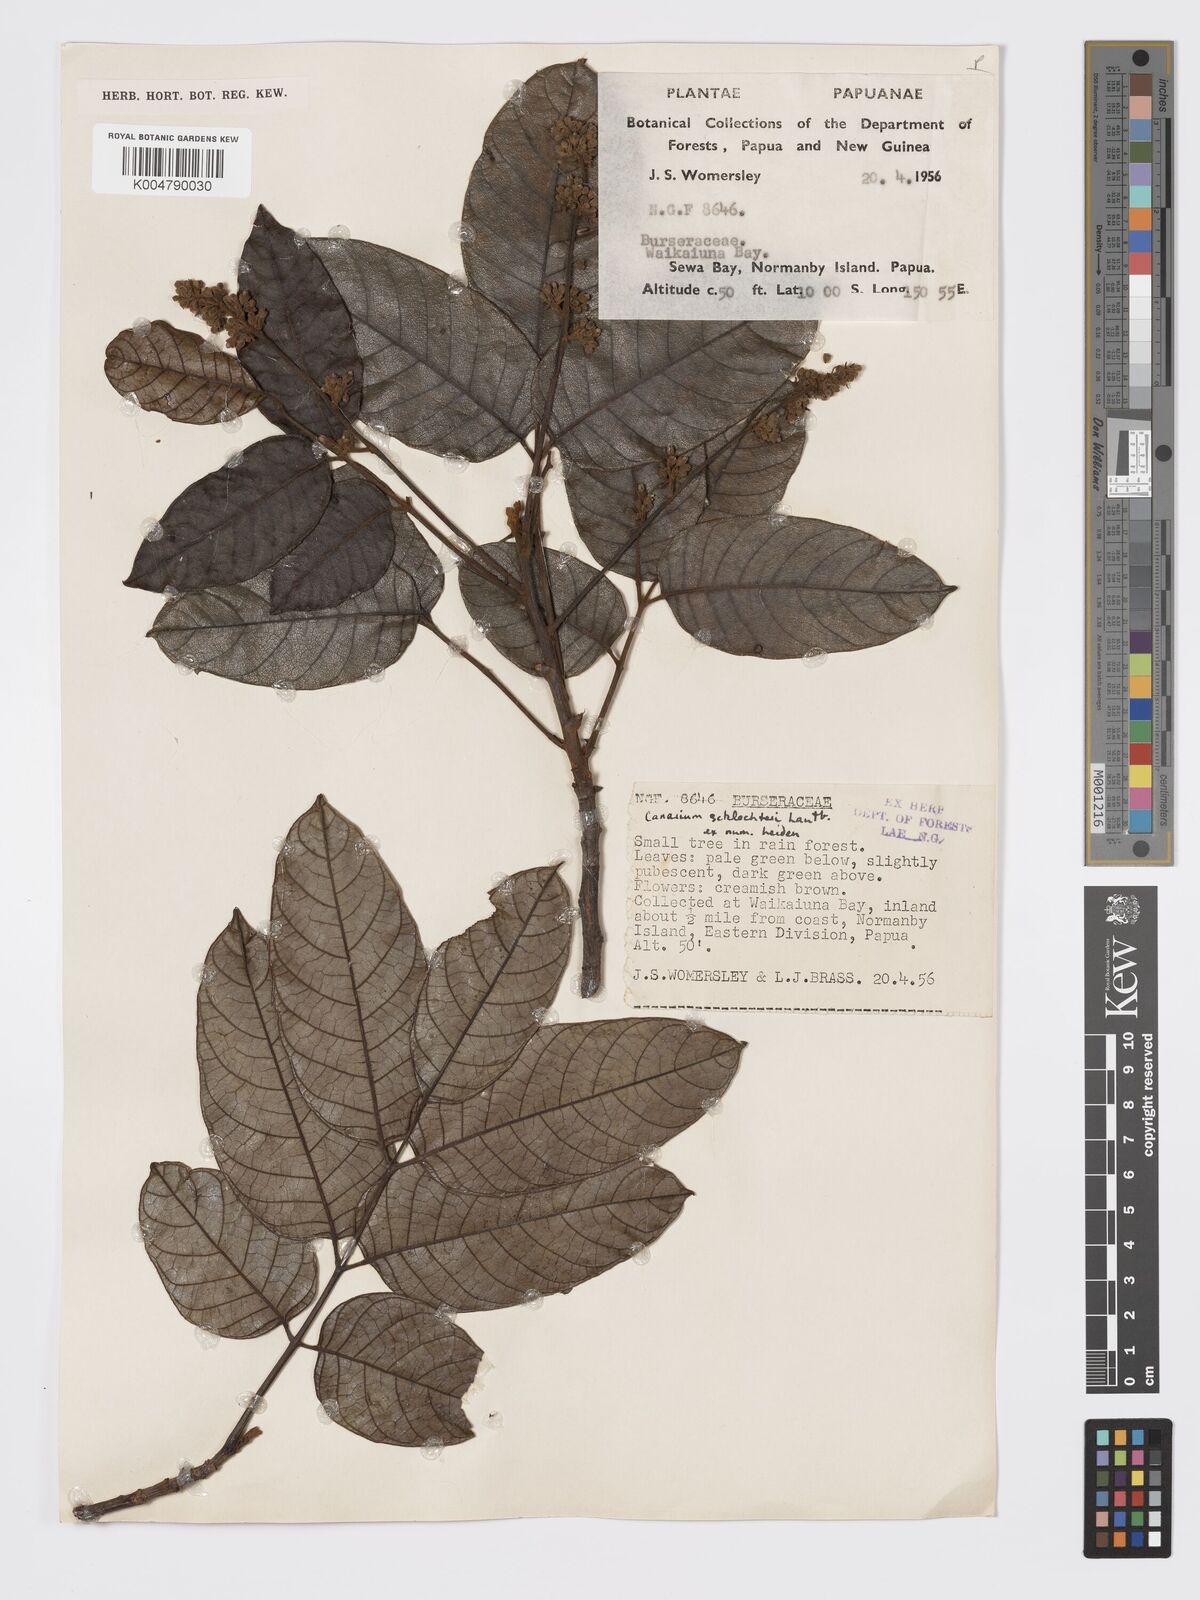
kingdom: Plantae
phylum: Tracheophyta
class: Magnoliopsida
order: Sapindales
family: Burseraceae
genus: Canarium
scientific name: Canarium schlechteri
